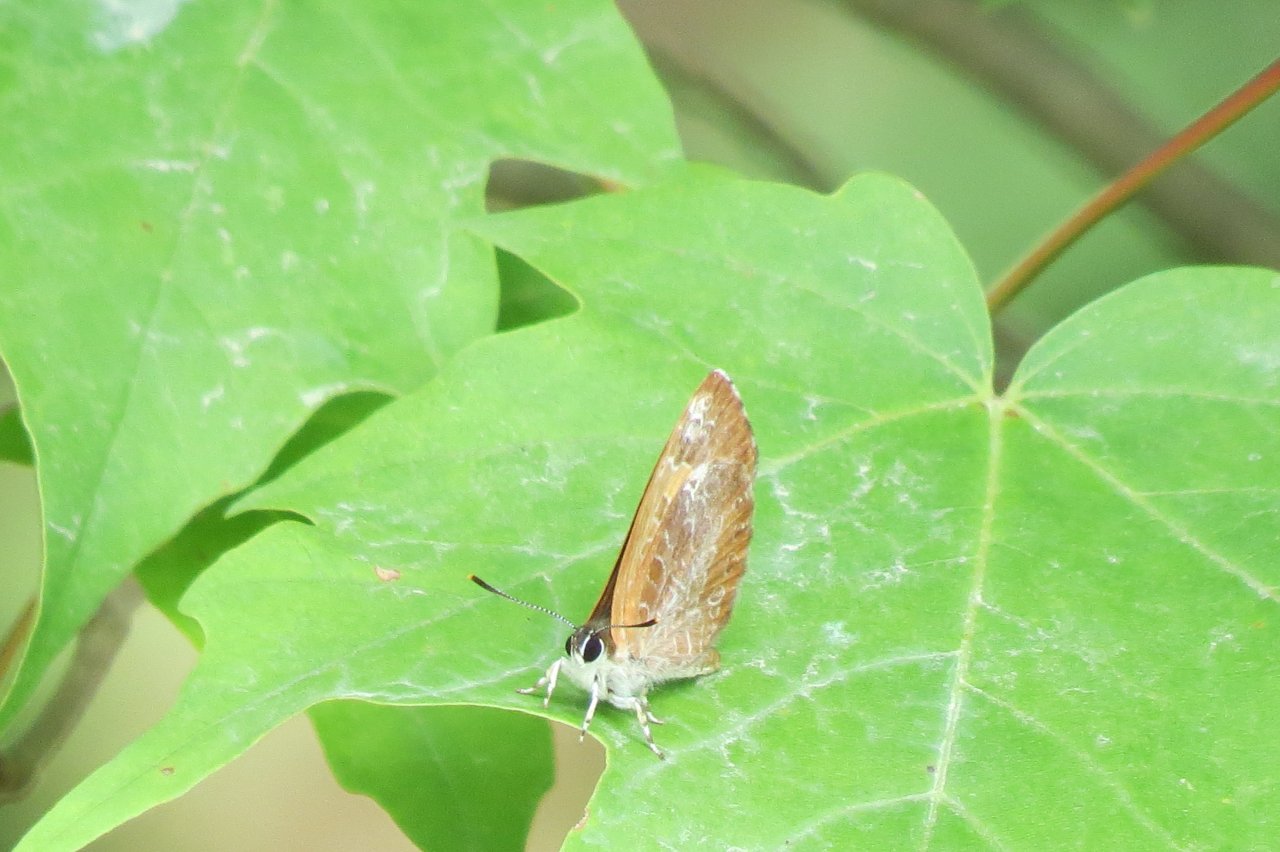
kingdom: Animalia
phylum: Arthropoda
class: Insecta
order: Lepidoptera
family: Lycaenidae
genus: Feniseca
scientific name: Feniseca tarquinius
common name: Harvester
